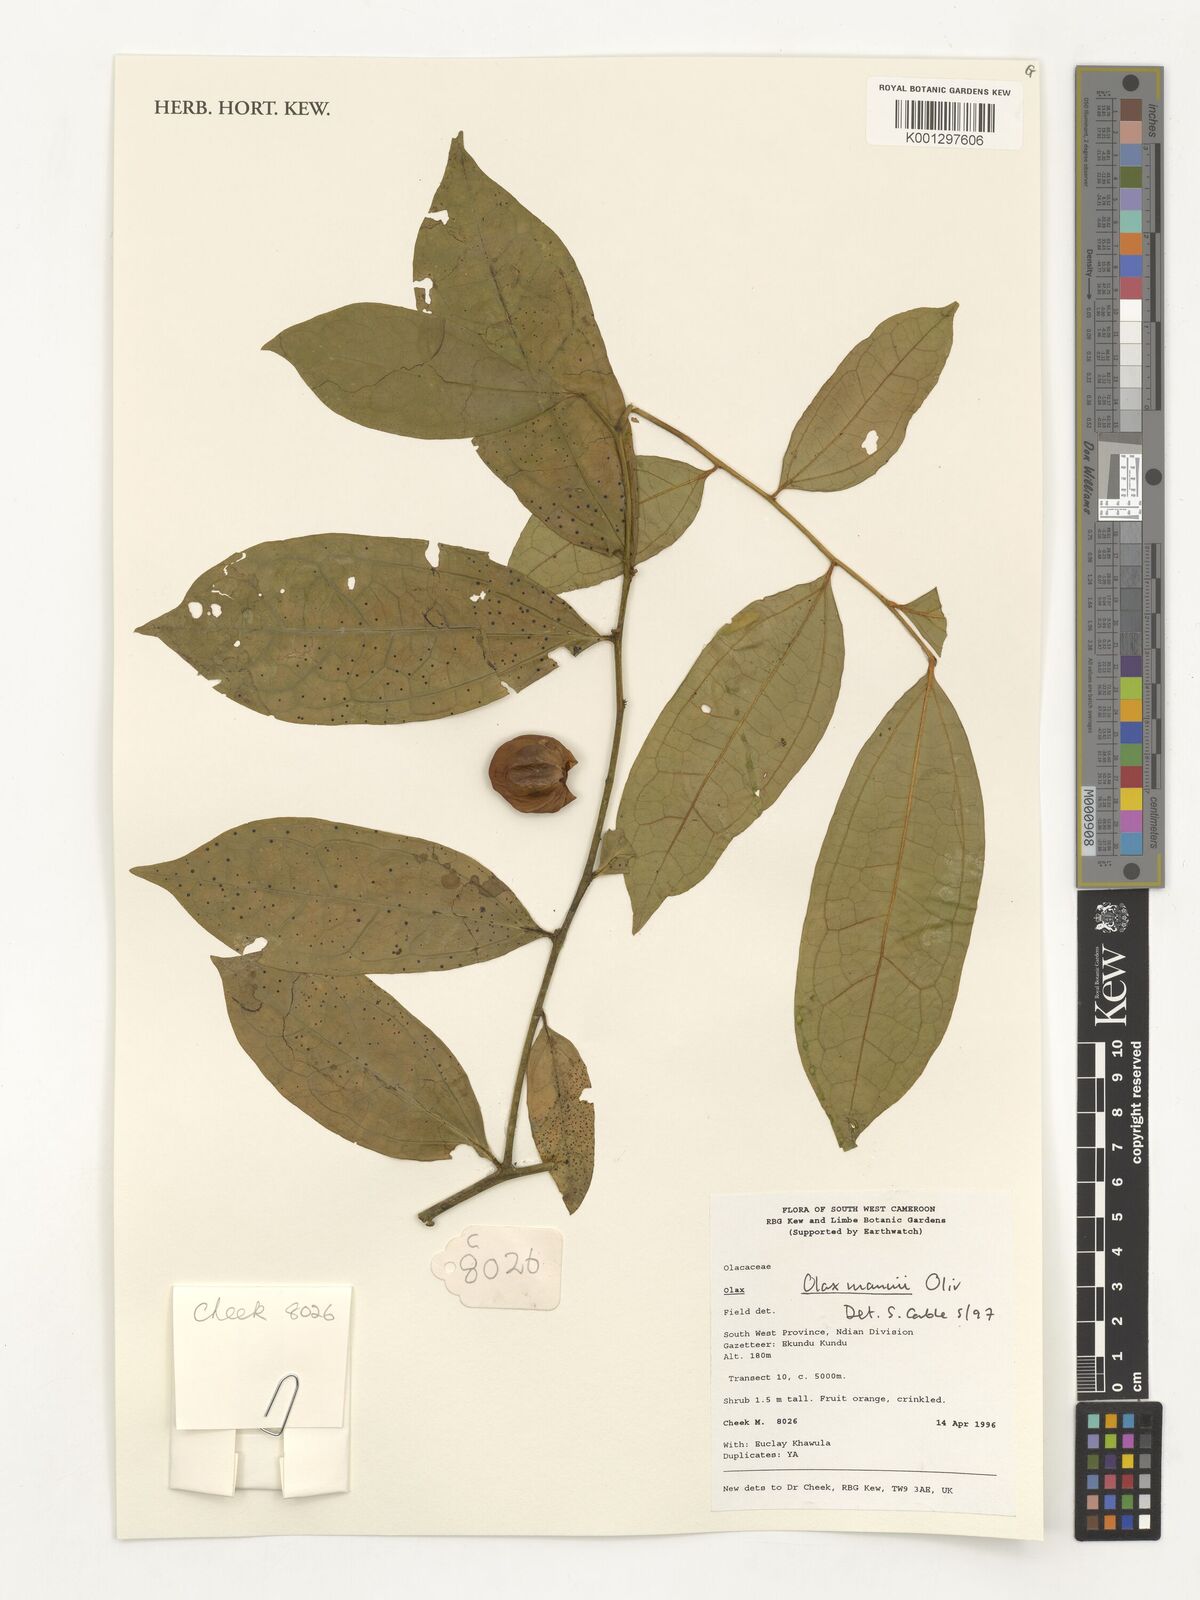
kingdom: Plantae
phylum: Tracheophyta
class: Magnoliopsida
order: Santalales
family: Olacaceae
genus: Olax
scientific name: Olax mannii
